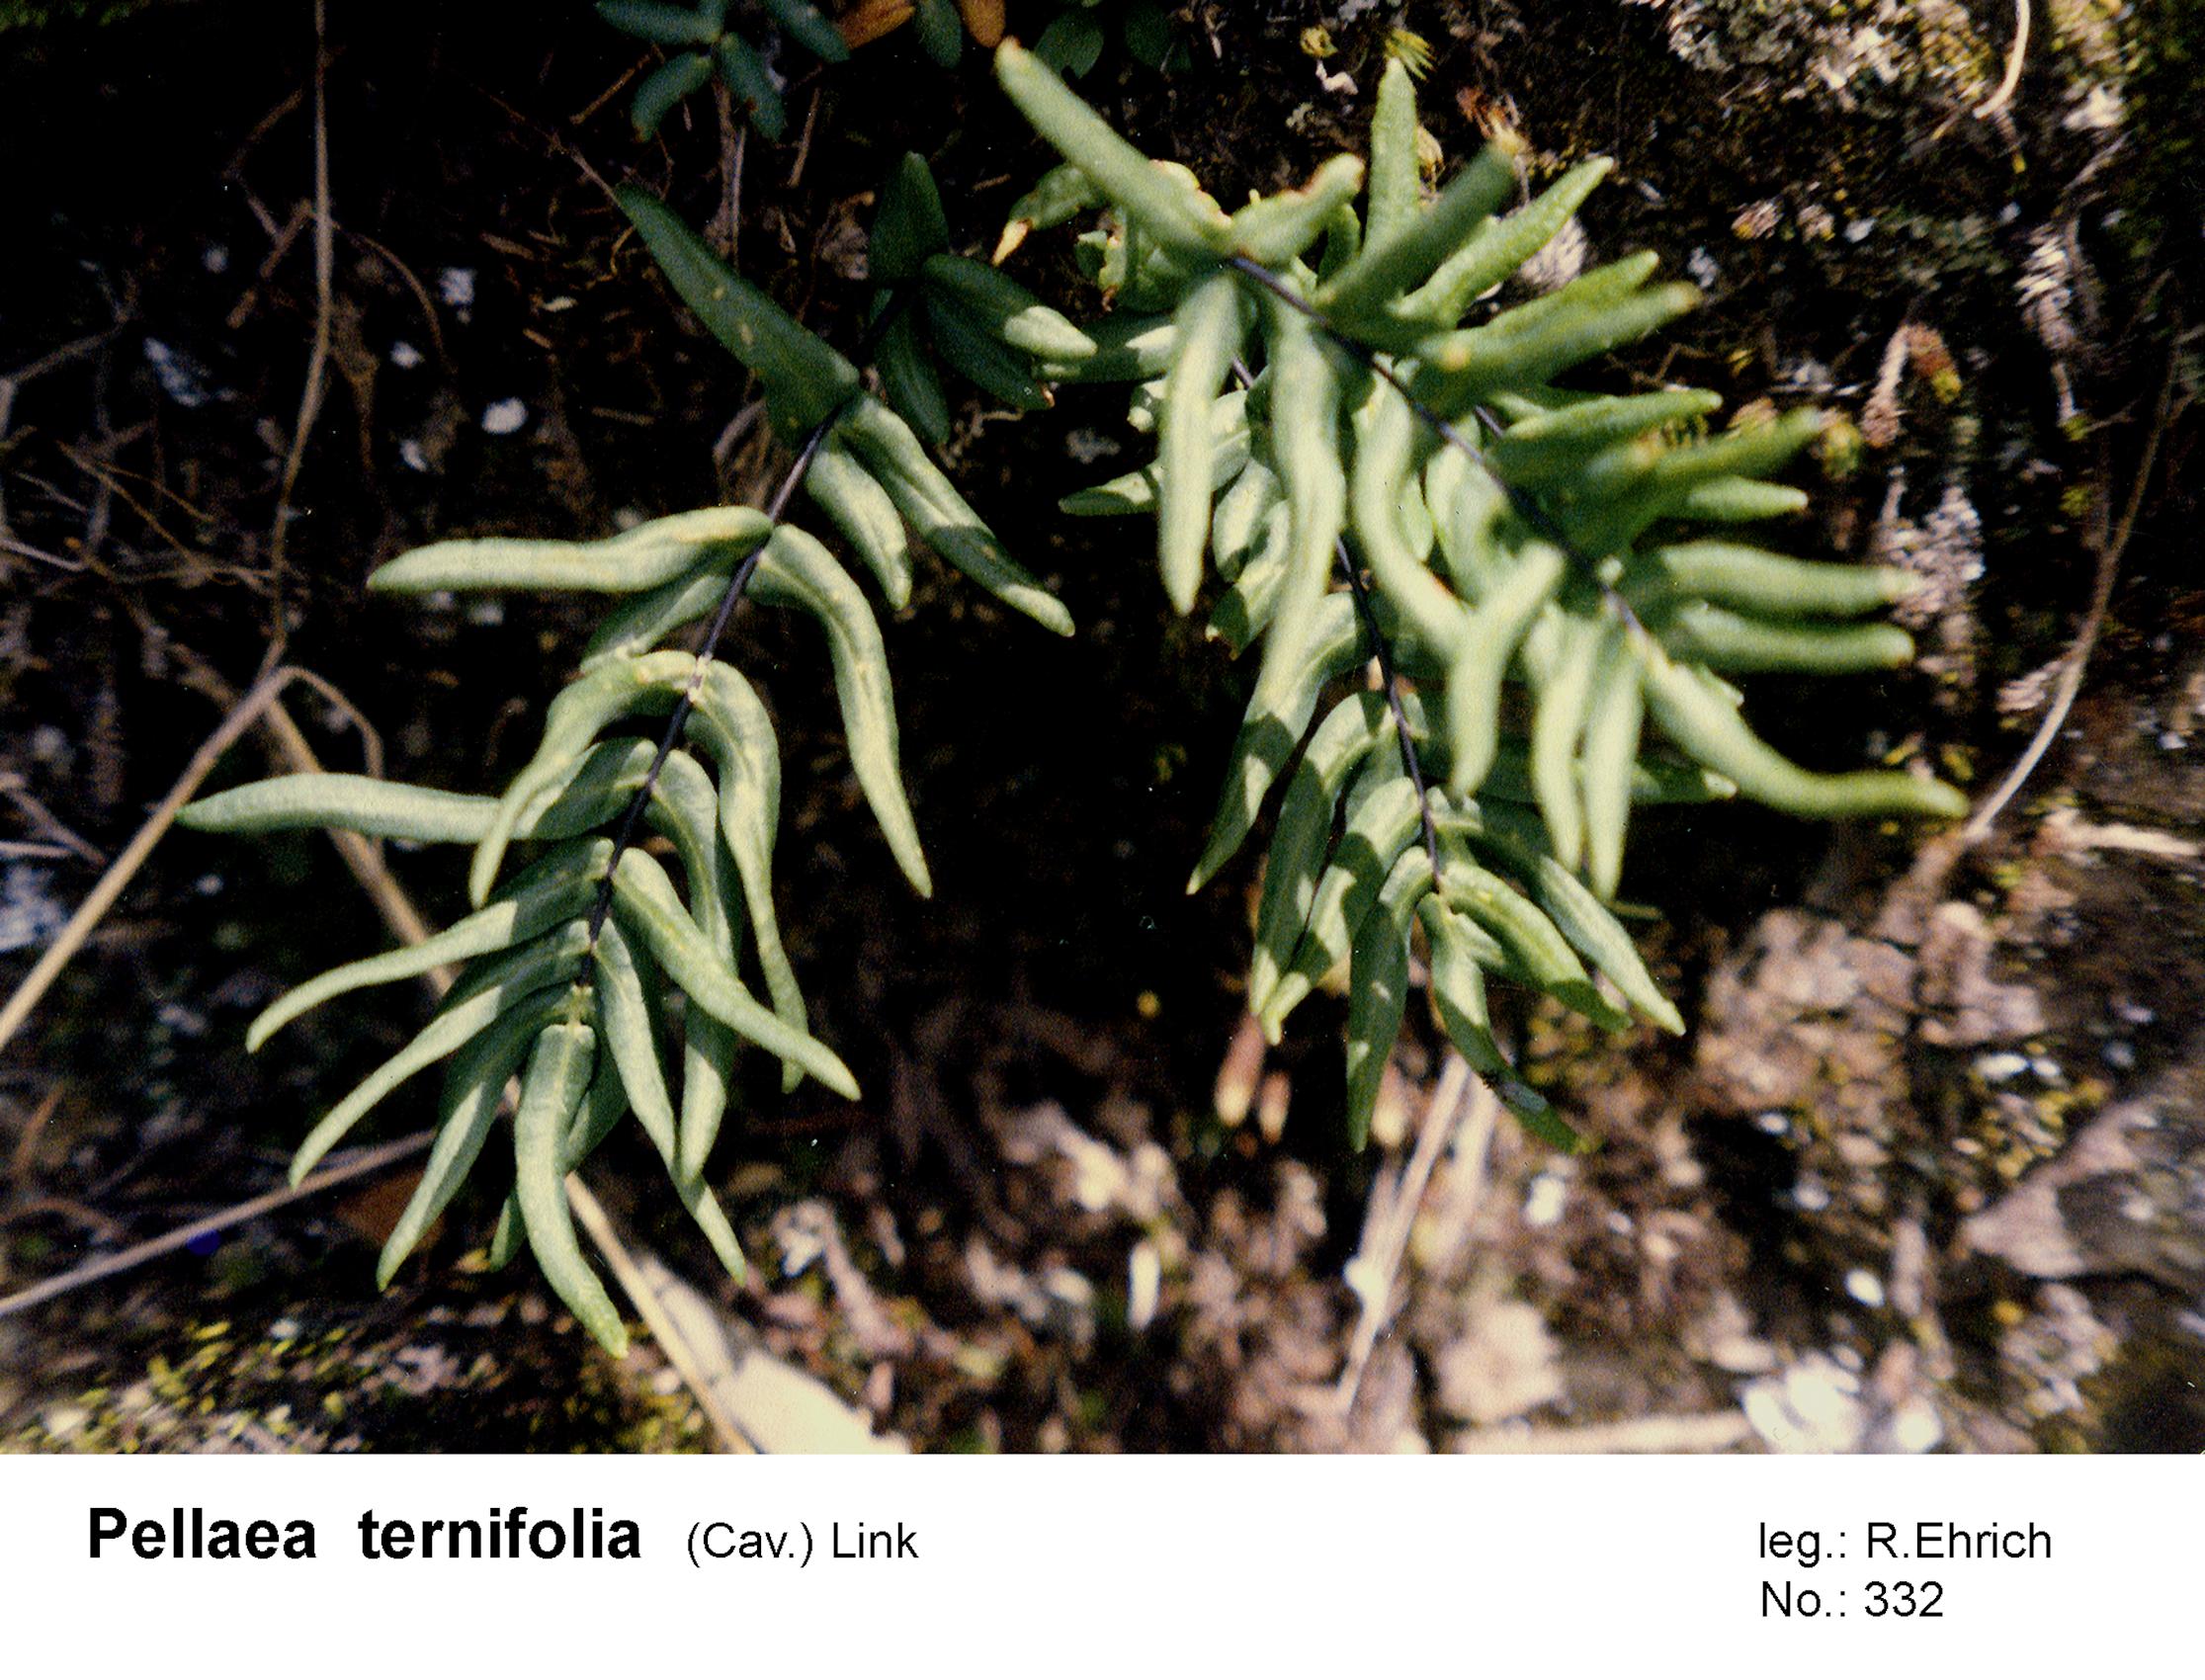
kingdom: Plantae
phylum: Tracheophyta
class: Polypodiopsida
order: Polypodiales
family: Pteridaceae
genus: Pellaea
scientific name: Pellaea ternifolia
